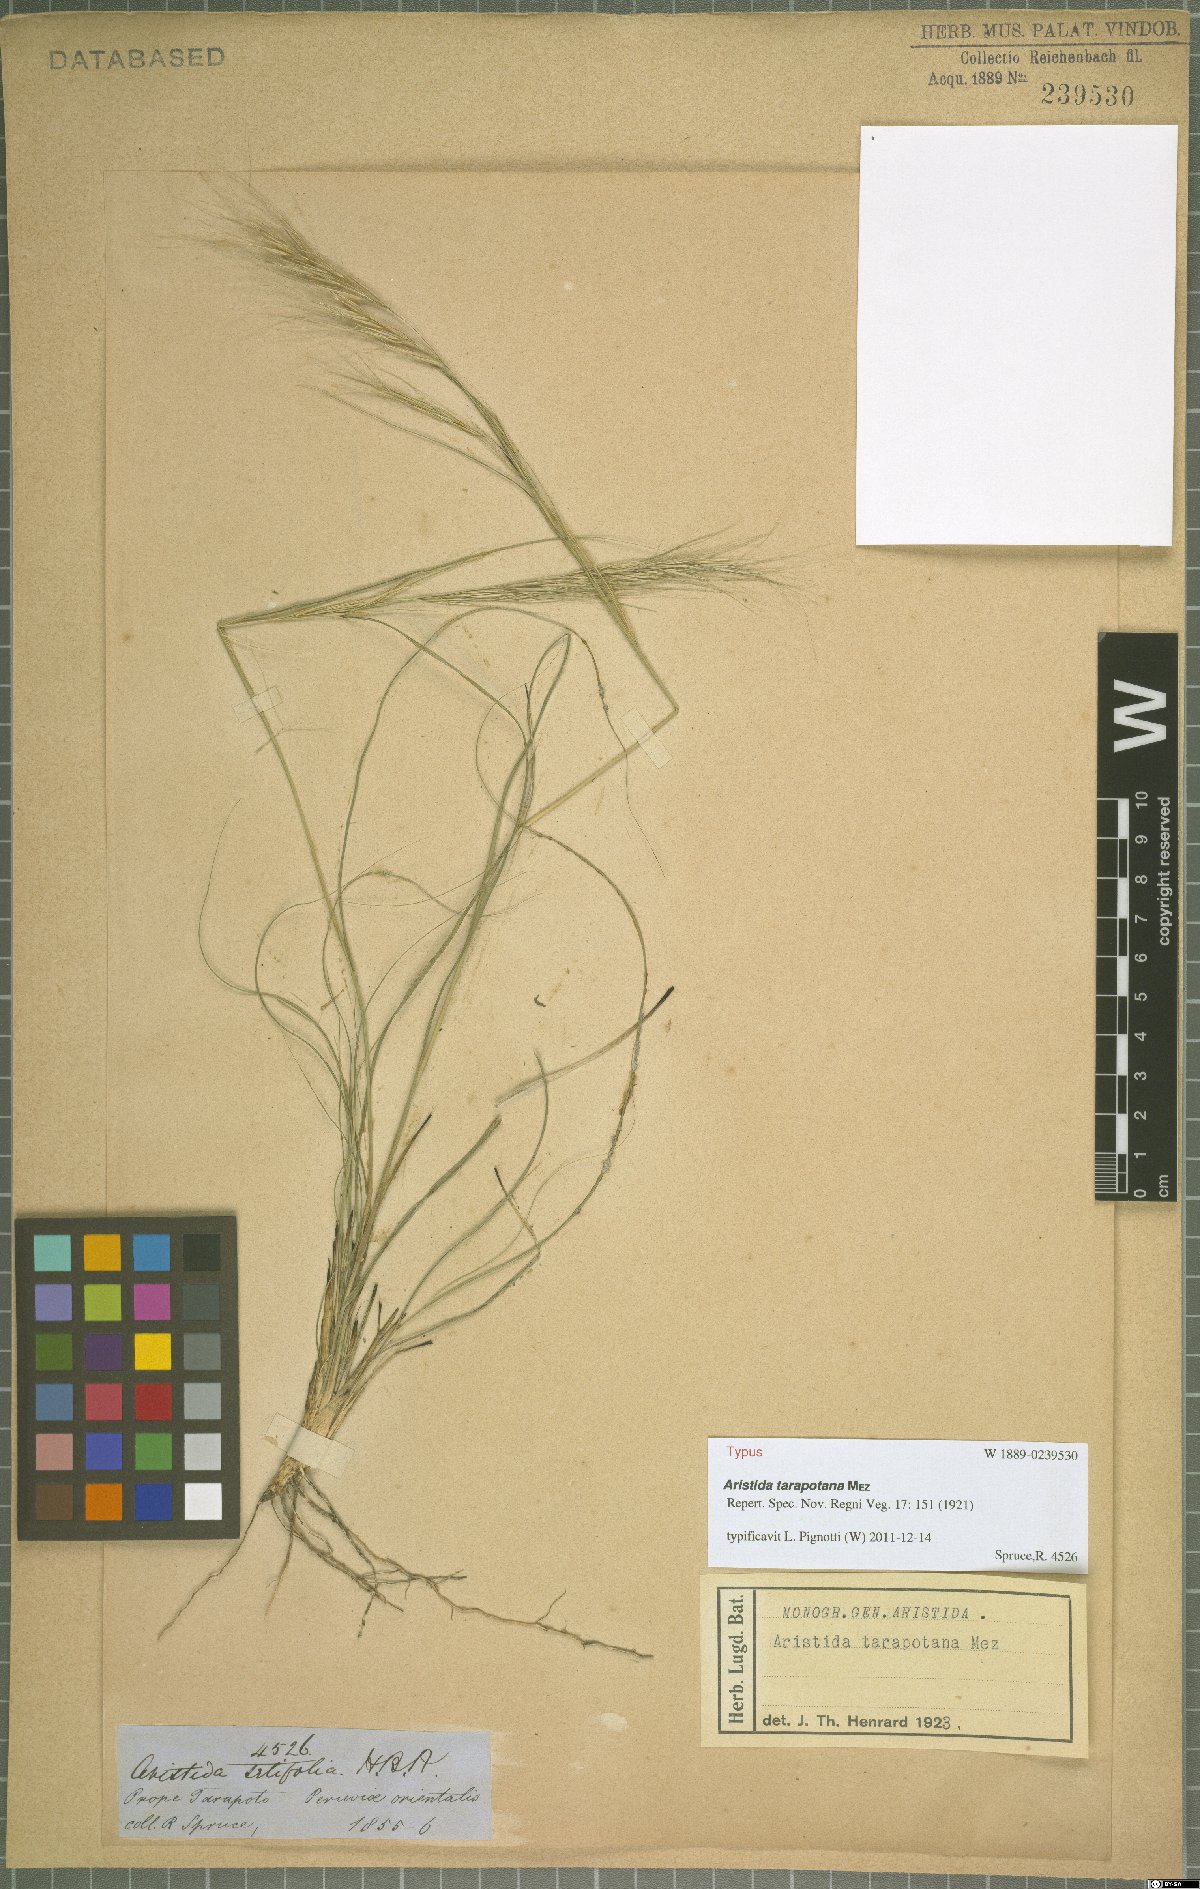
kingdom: Plantae
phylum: Tracheophyta
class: Liliopsida
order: Poales
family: Poaceae
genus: Aristida
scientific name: Aristida tarapotana
